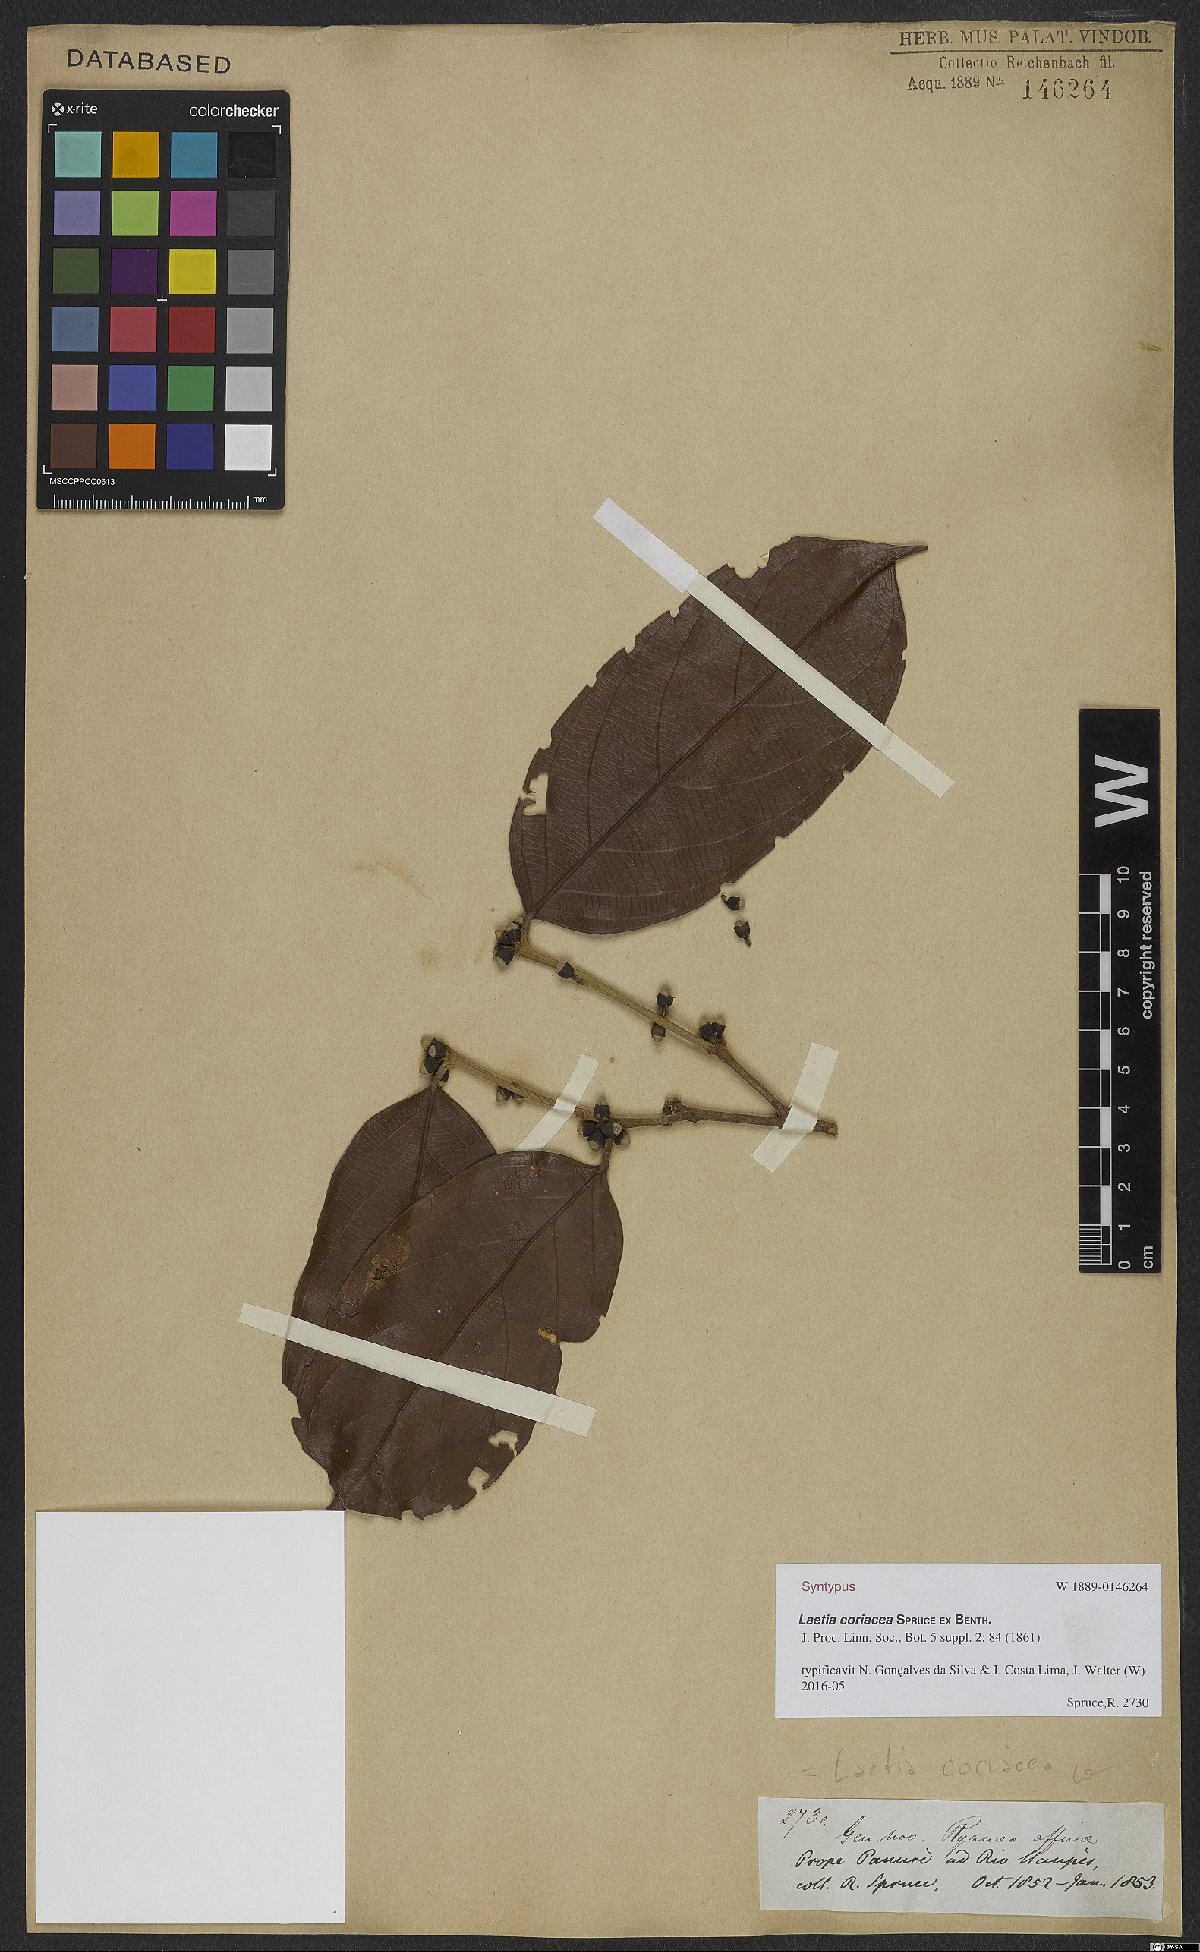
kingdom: Plantae
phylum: Tracheophyta
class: Magnoliopsida
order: Malpighiales
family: Salicaceae
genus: Irenodendron
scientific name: Irenodendron coriaceum
